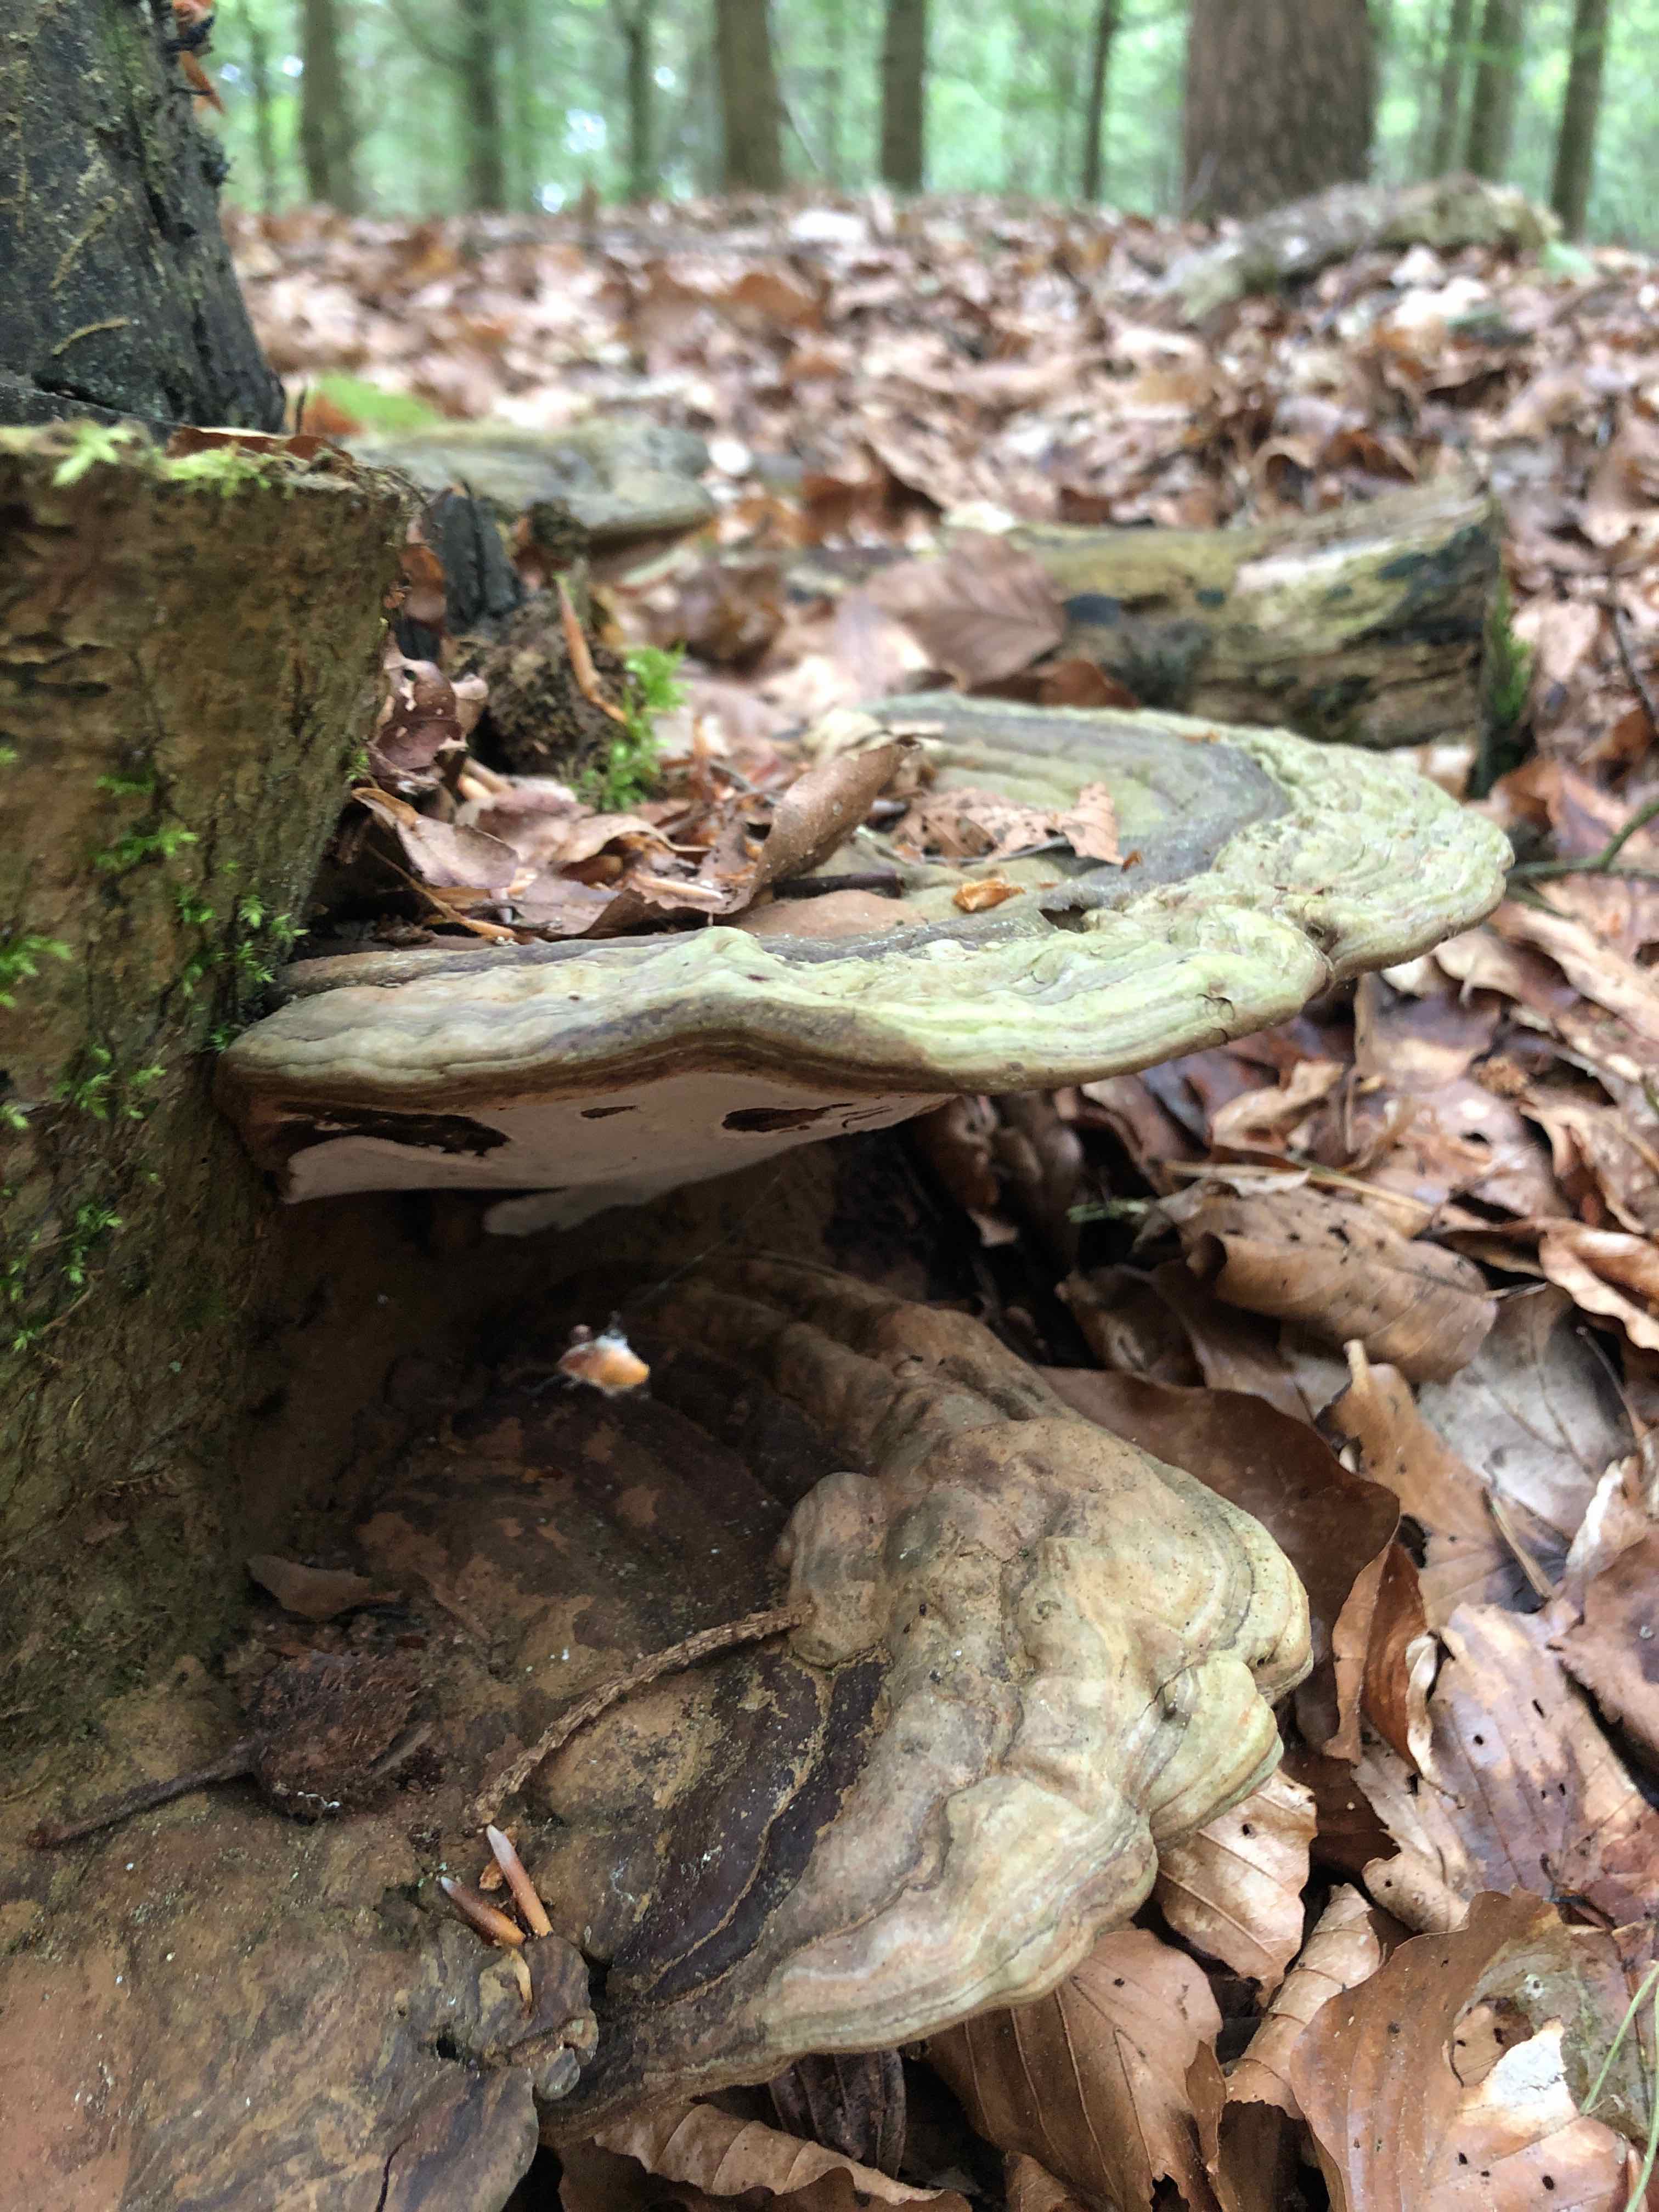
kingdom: Fungi
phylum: Basidiomycota
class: Agaricomycetes
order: Polyporales
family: Polyporaceae
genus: Ganoderma
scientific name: Ganoderma applanatum
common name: flad lakporesvamp
